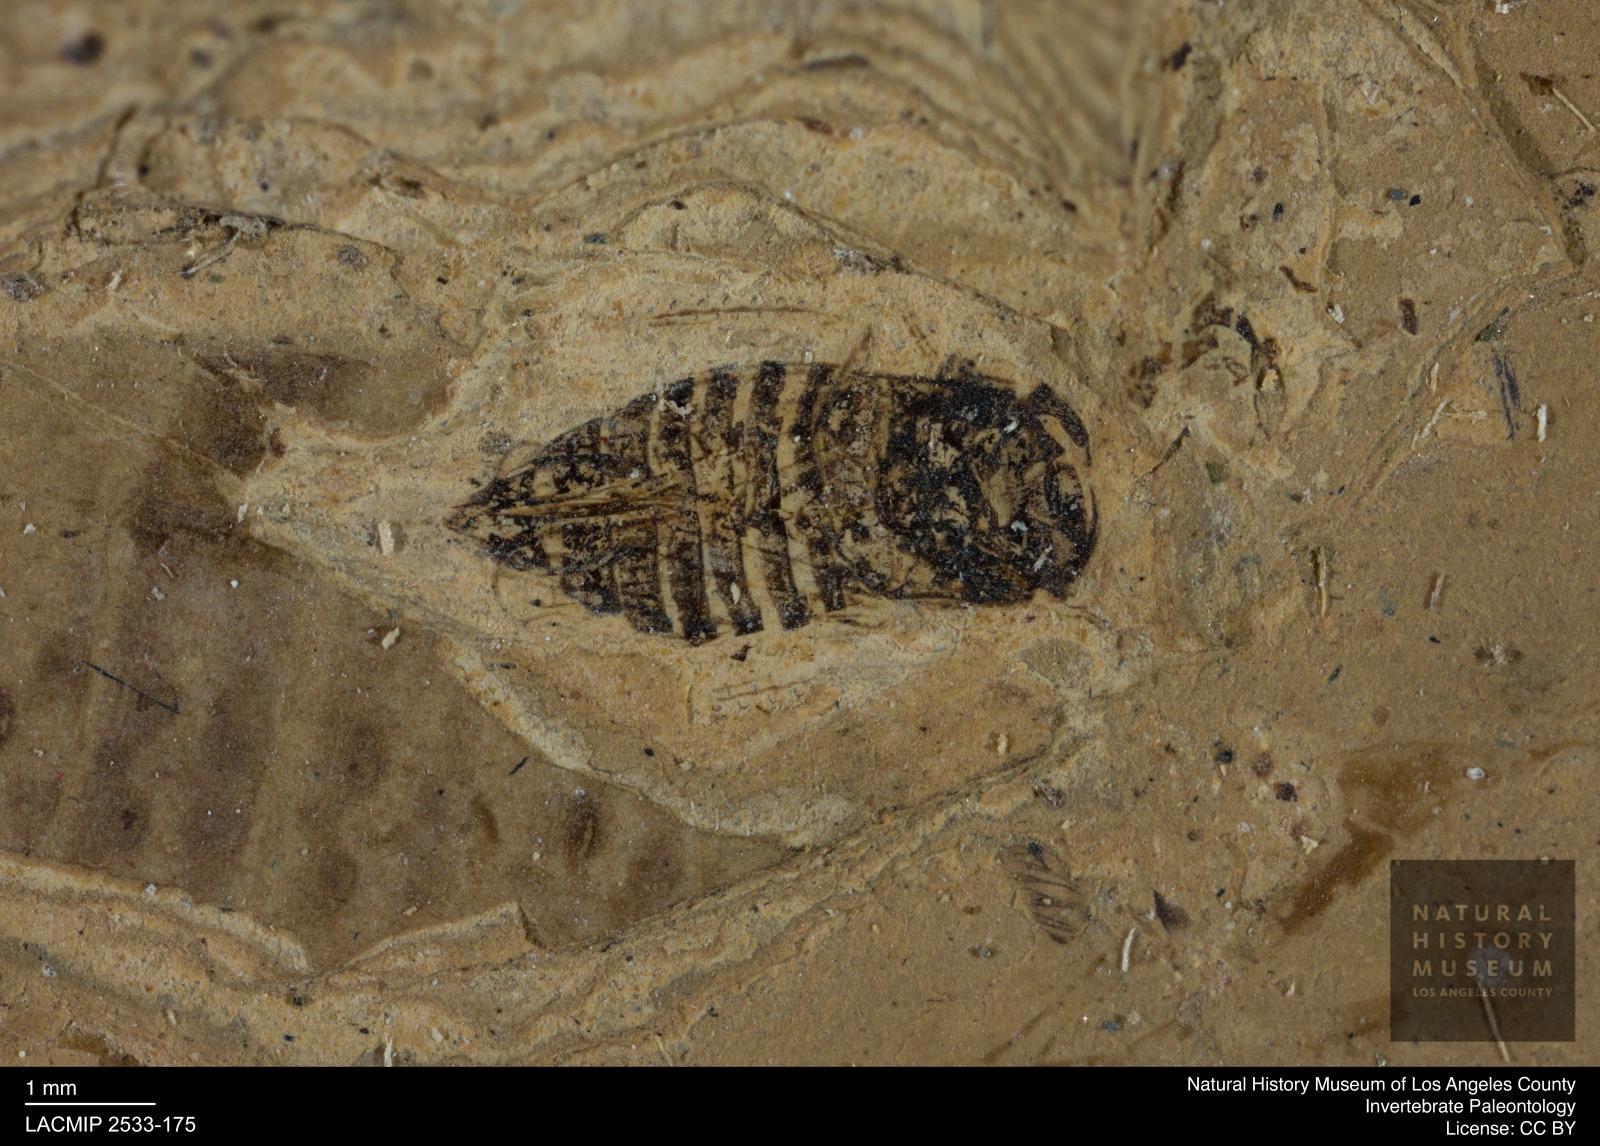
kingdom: Animalia
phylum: Arthropoda
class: Insecta
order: Hemiptera
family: Cicadellidae
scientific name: Cicadellidae
